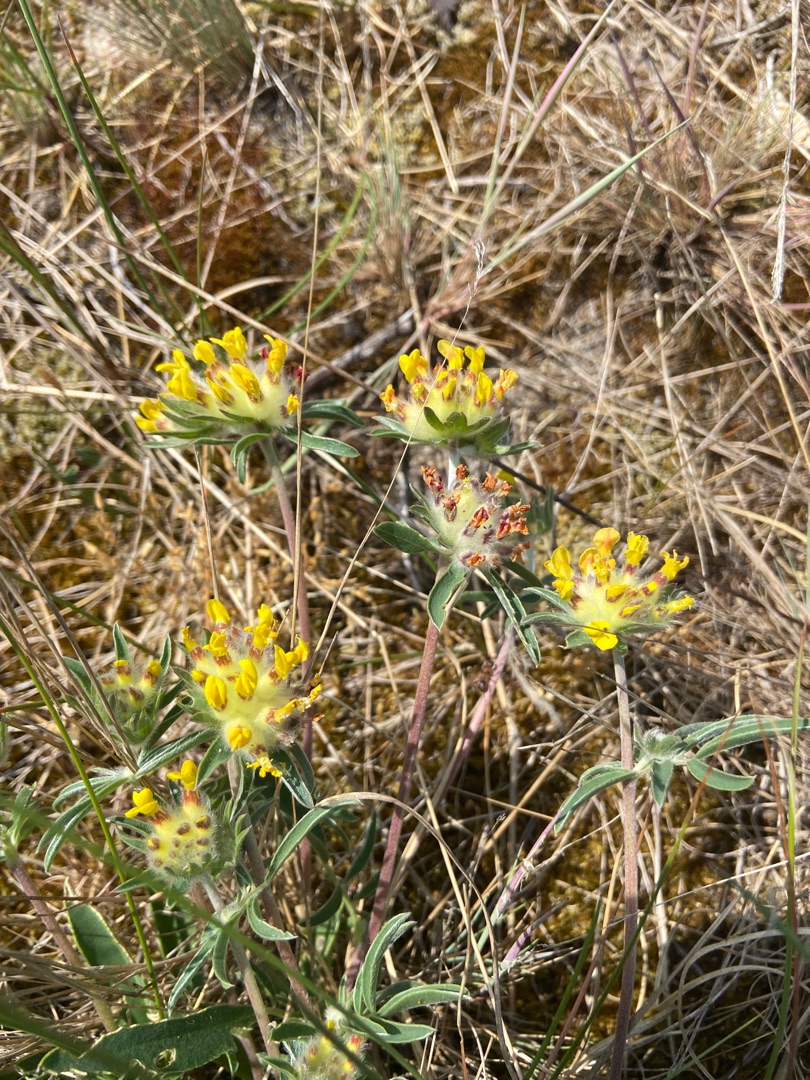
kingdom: Plantae
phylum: Tracheophyta
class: Magnoliopsida
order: Fabales
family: Fabaceae
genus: Anthyllis
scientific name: Anthyllis vulneraria
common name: Rundbælg
